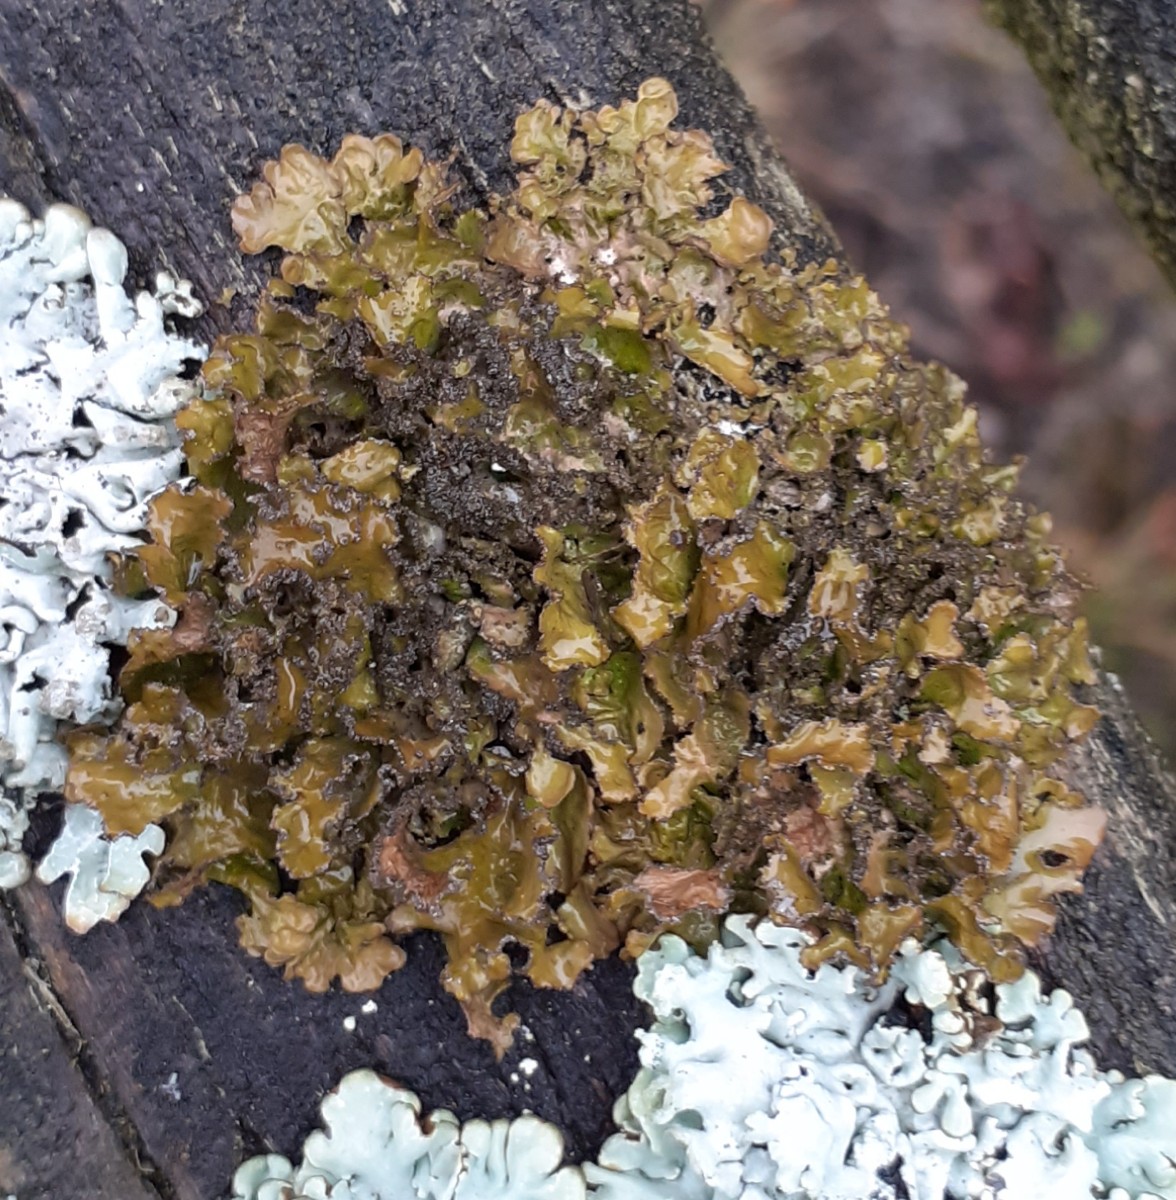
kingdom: Fungi
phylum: Ascomycota
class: Lecanoromycetes
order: Lecanorales
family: Parmeliaceae
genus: Nephromopsis
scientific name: Nephromopsis chlorophylla
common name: olivenbrun kruslav
